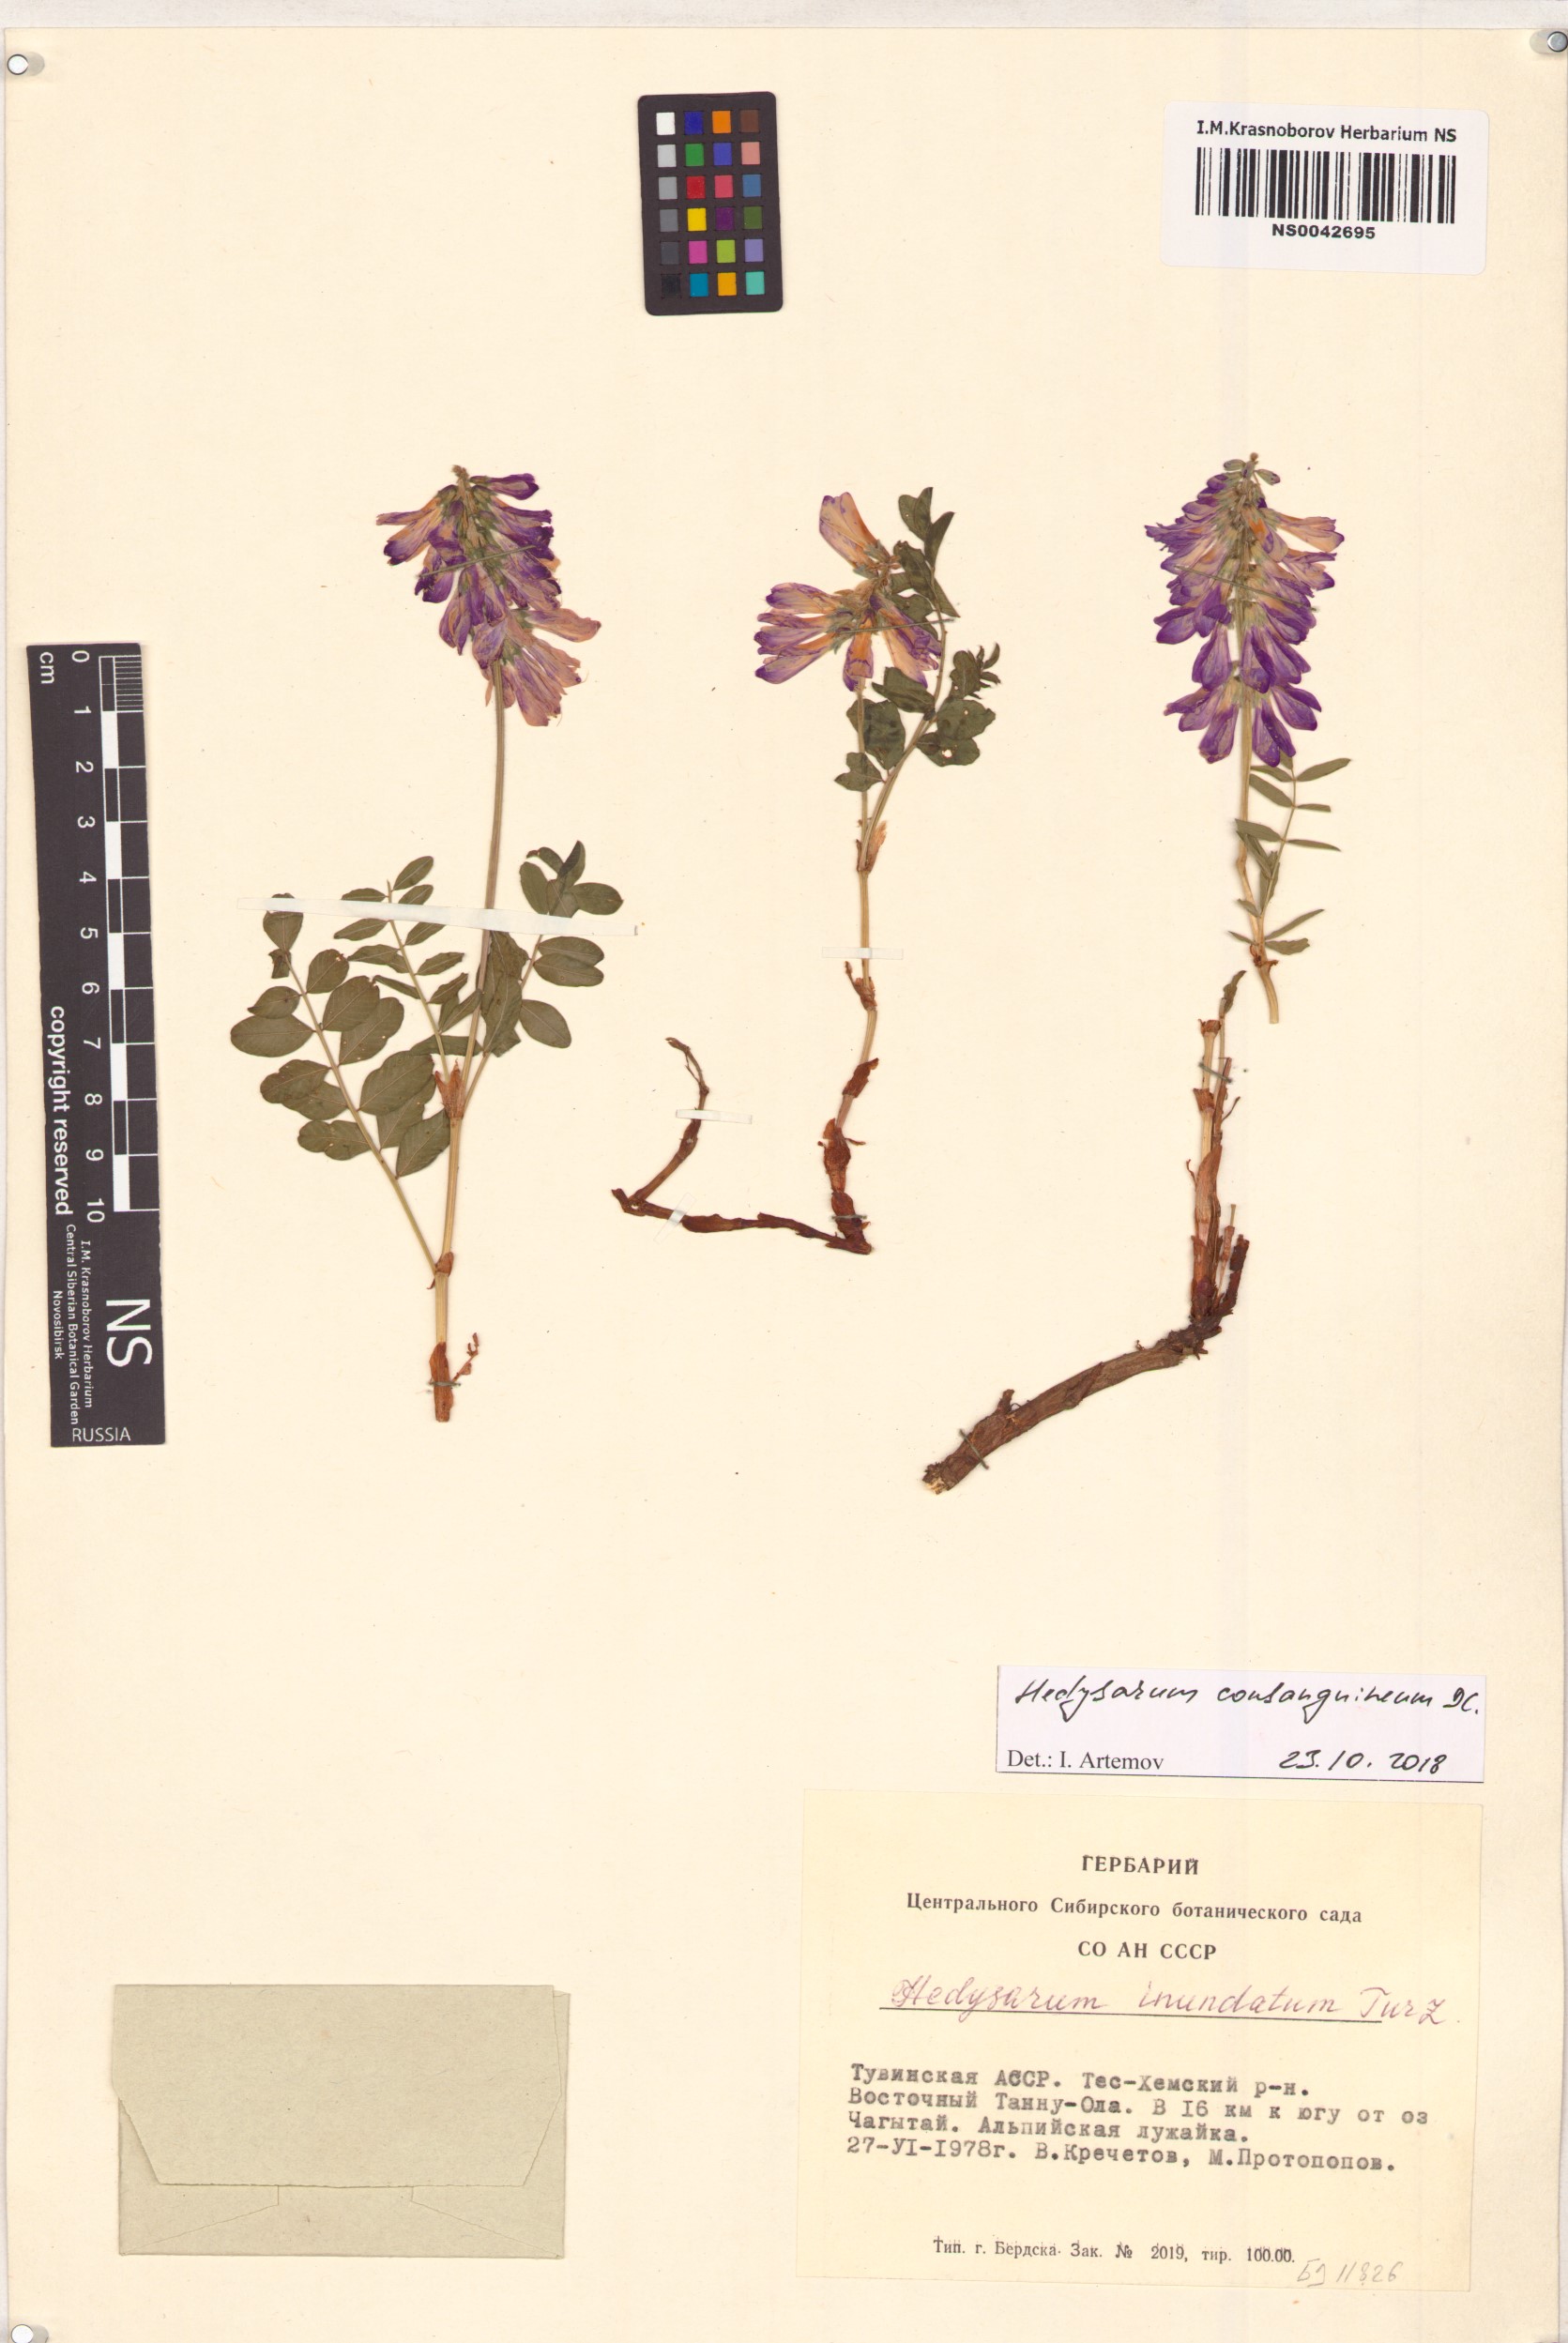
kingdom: Plantae
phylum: Tracheophyta
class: Magnoliopsida
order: Fabales
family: Fabaceae
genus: Hedysarum
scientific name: Hedysarum consanguineum
